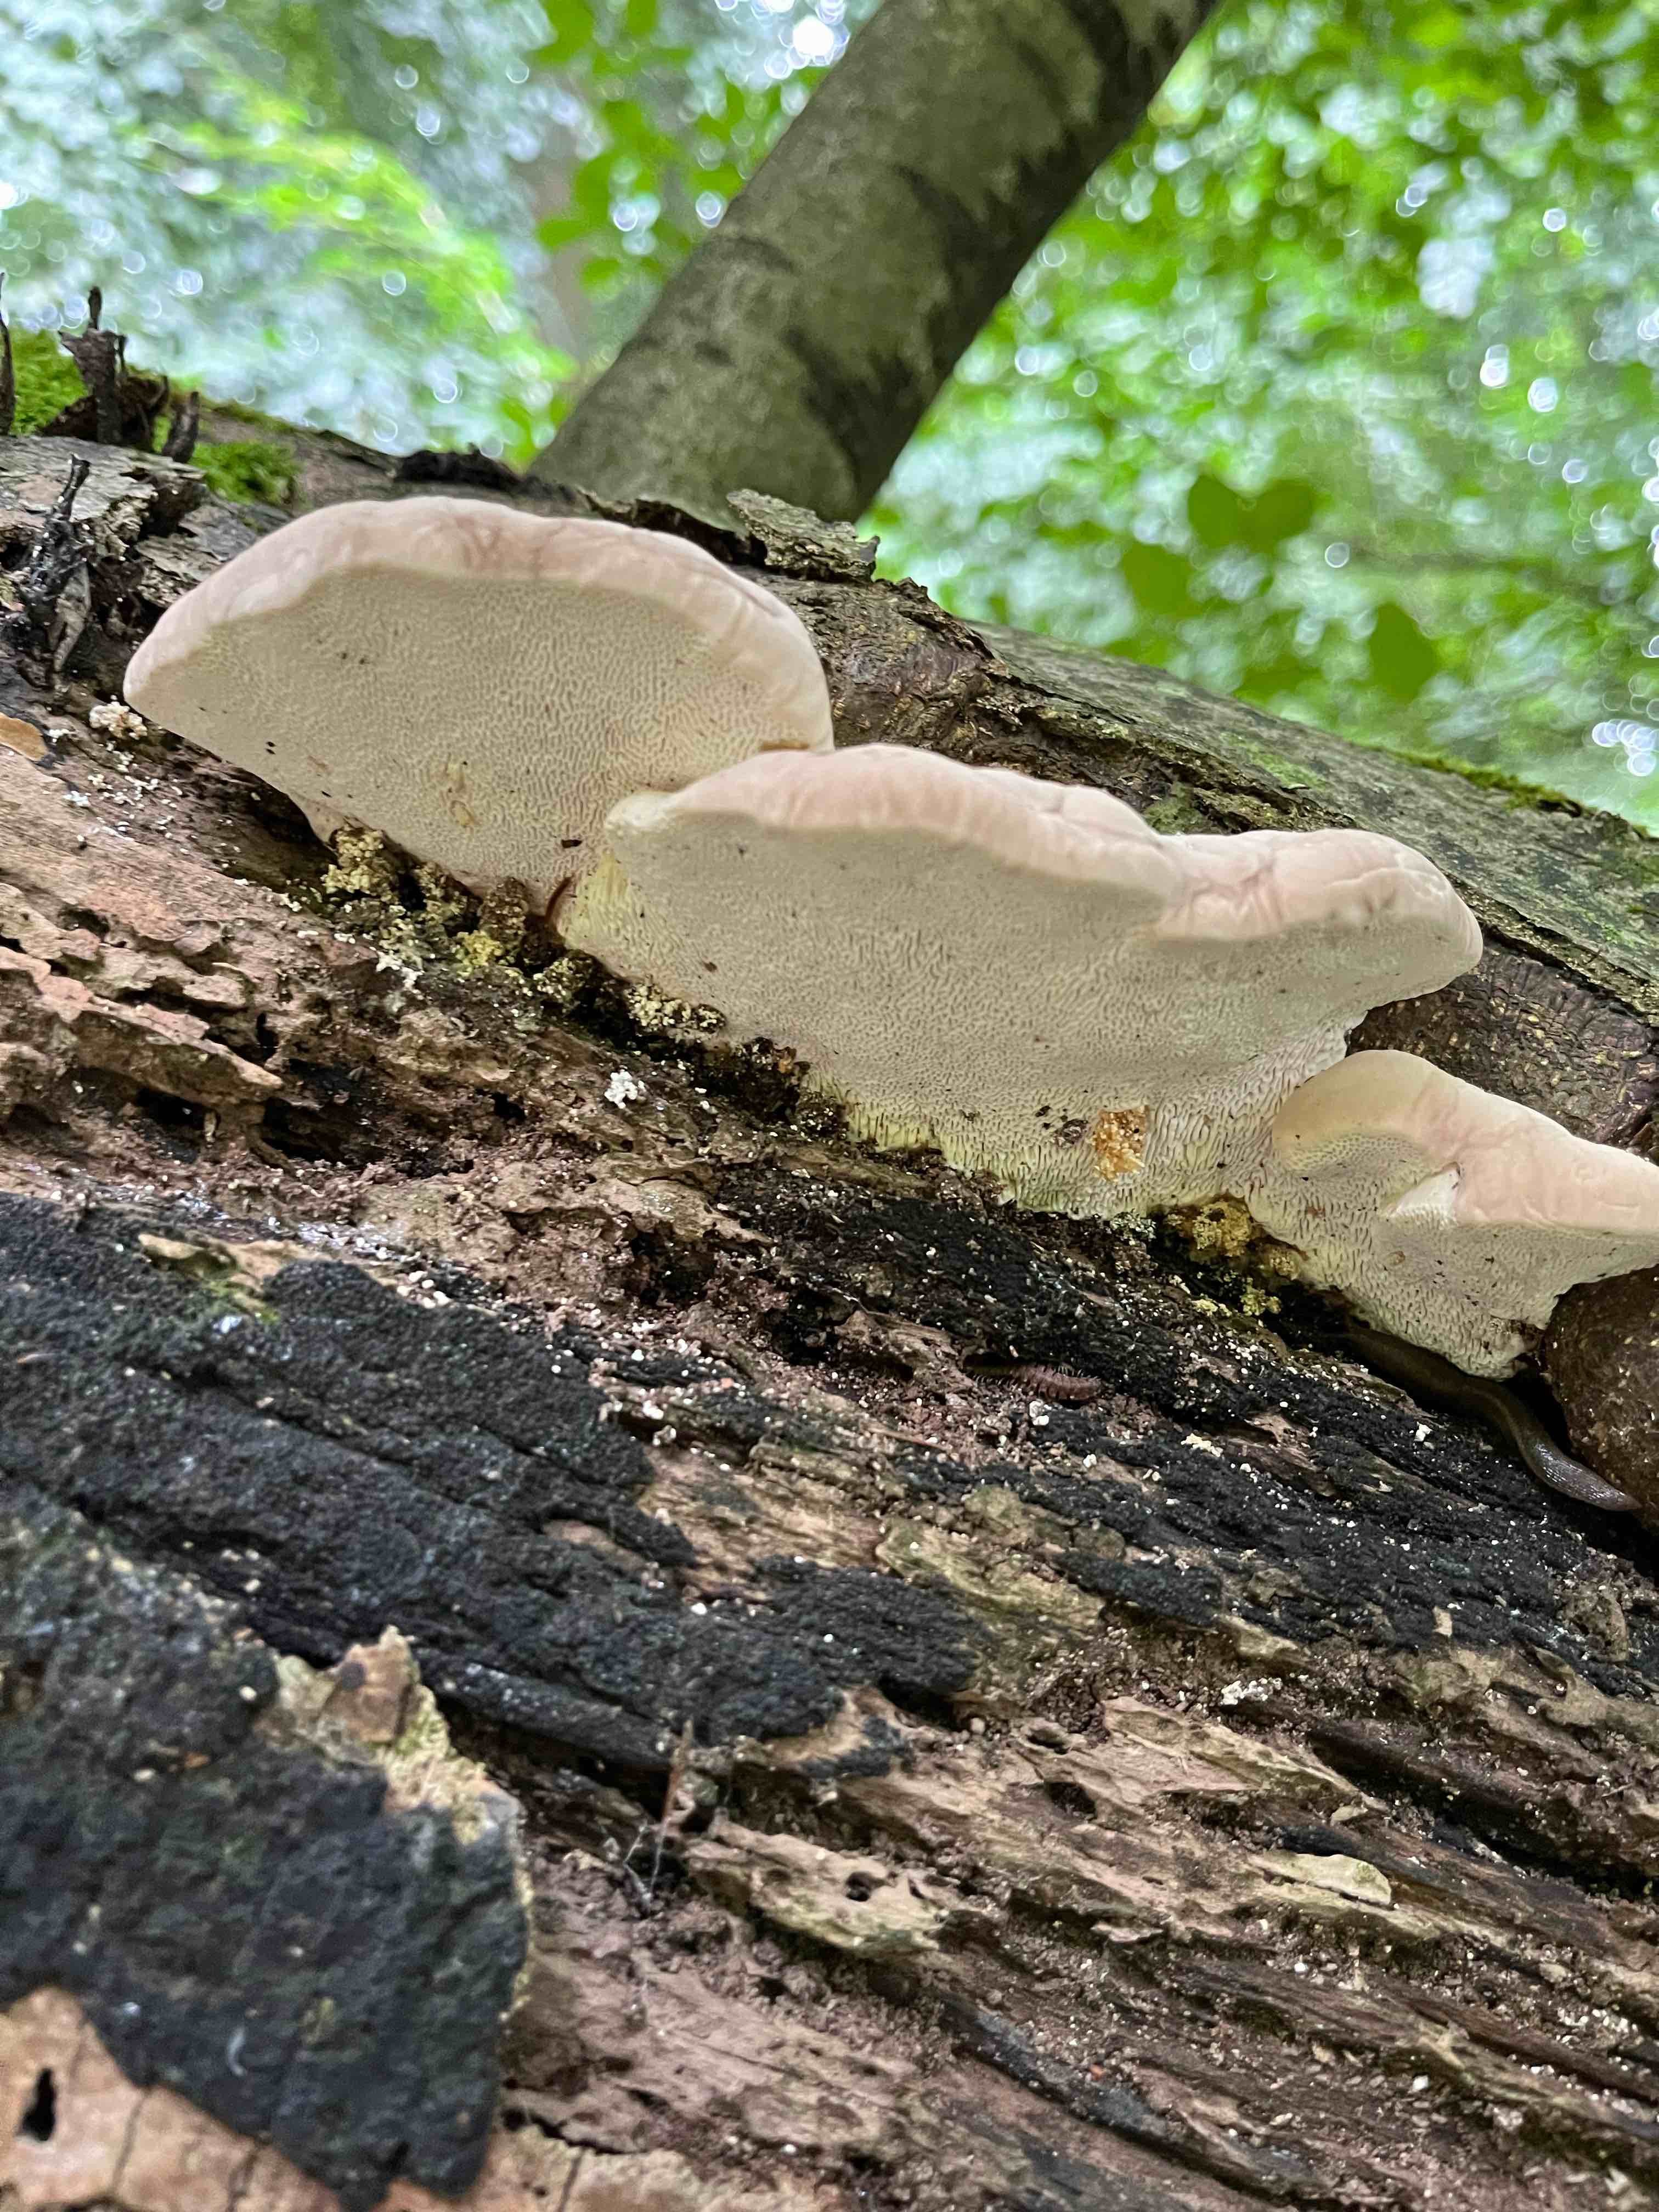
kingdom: Fungi
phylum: Basidiomycota
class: Agaricomycetes
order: Polyporales
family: Polyporaceae
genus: Trametes
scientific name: Trametes gibbosa
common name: puklet læderporesvamp
